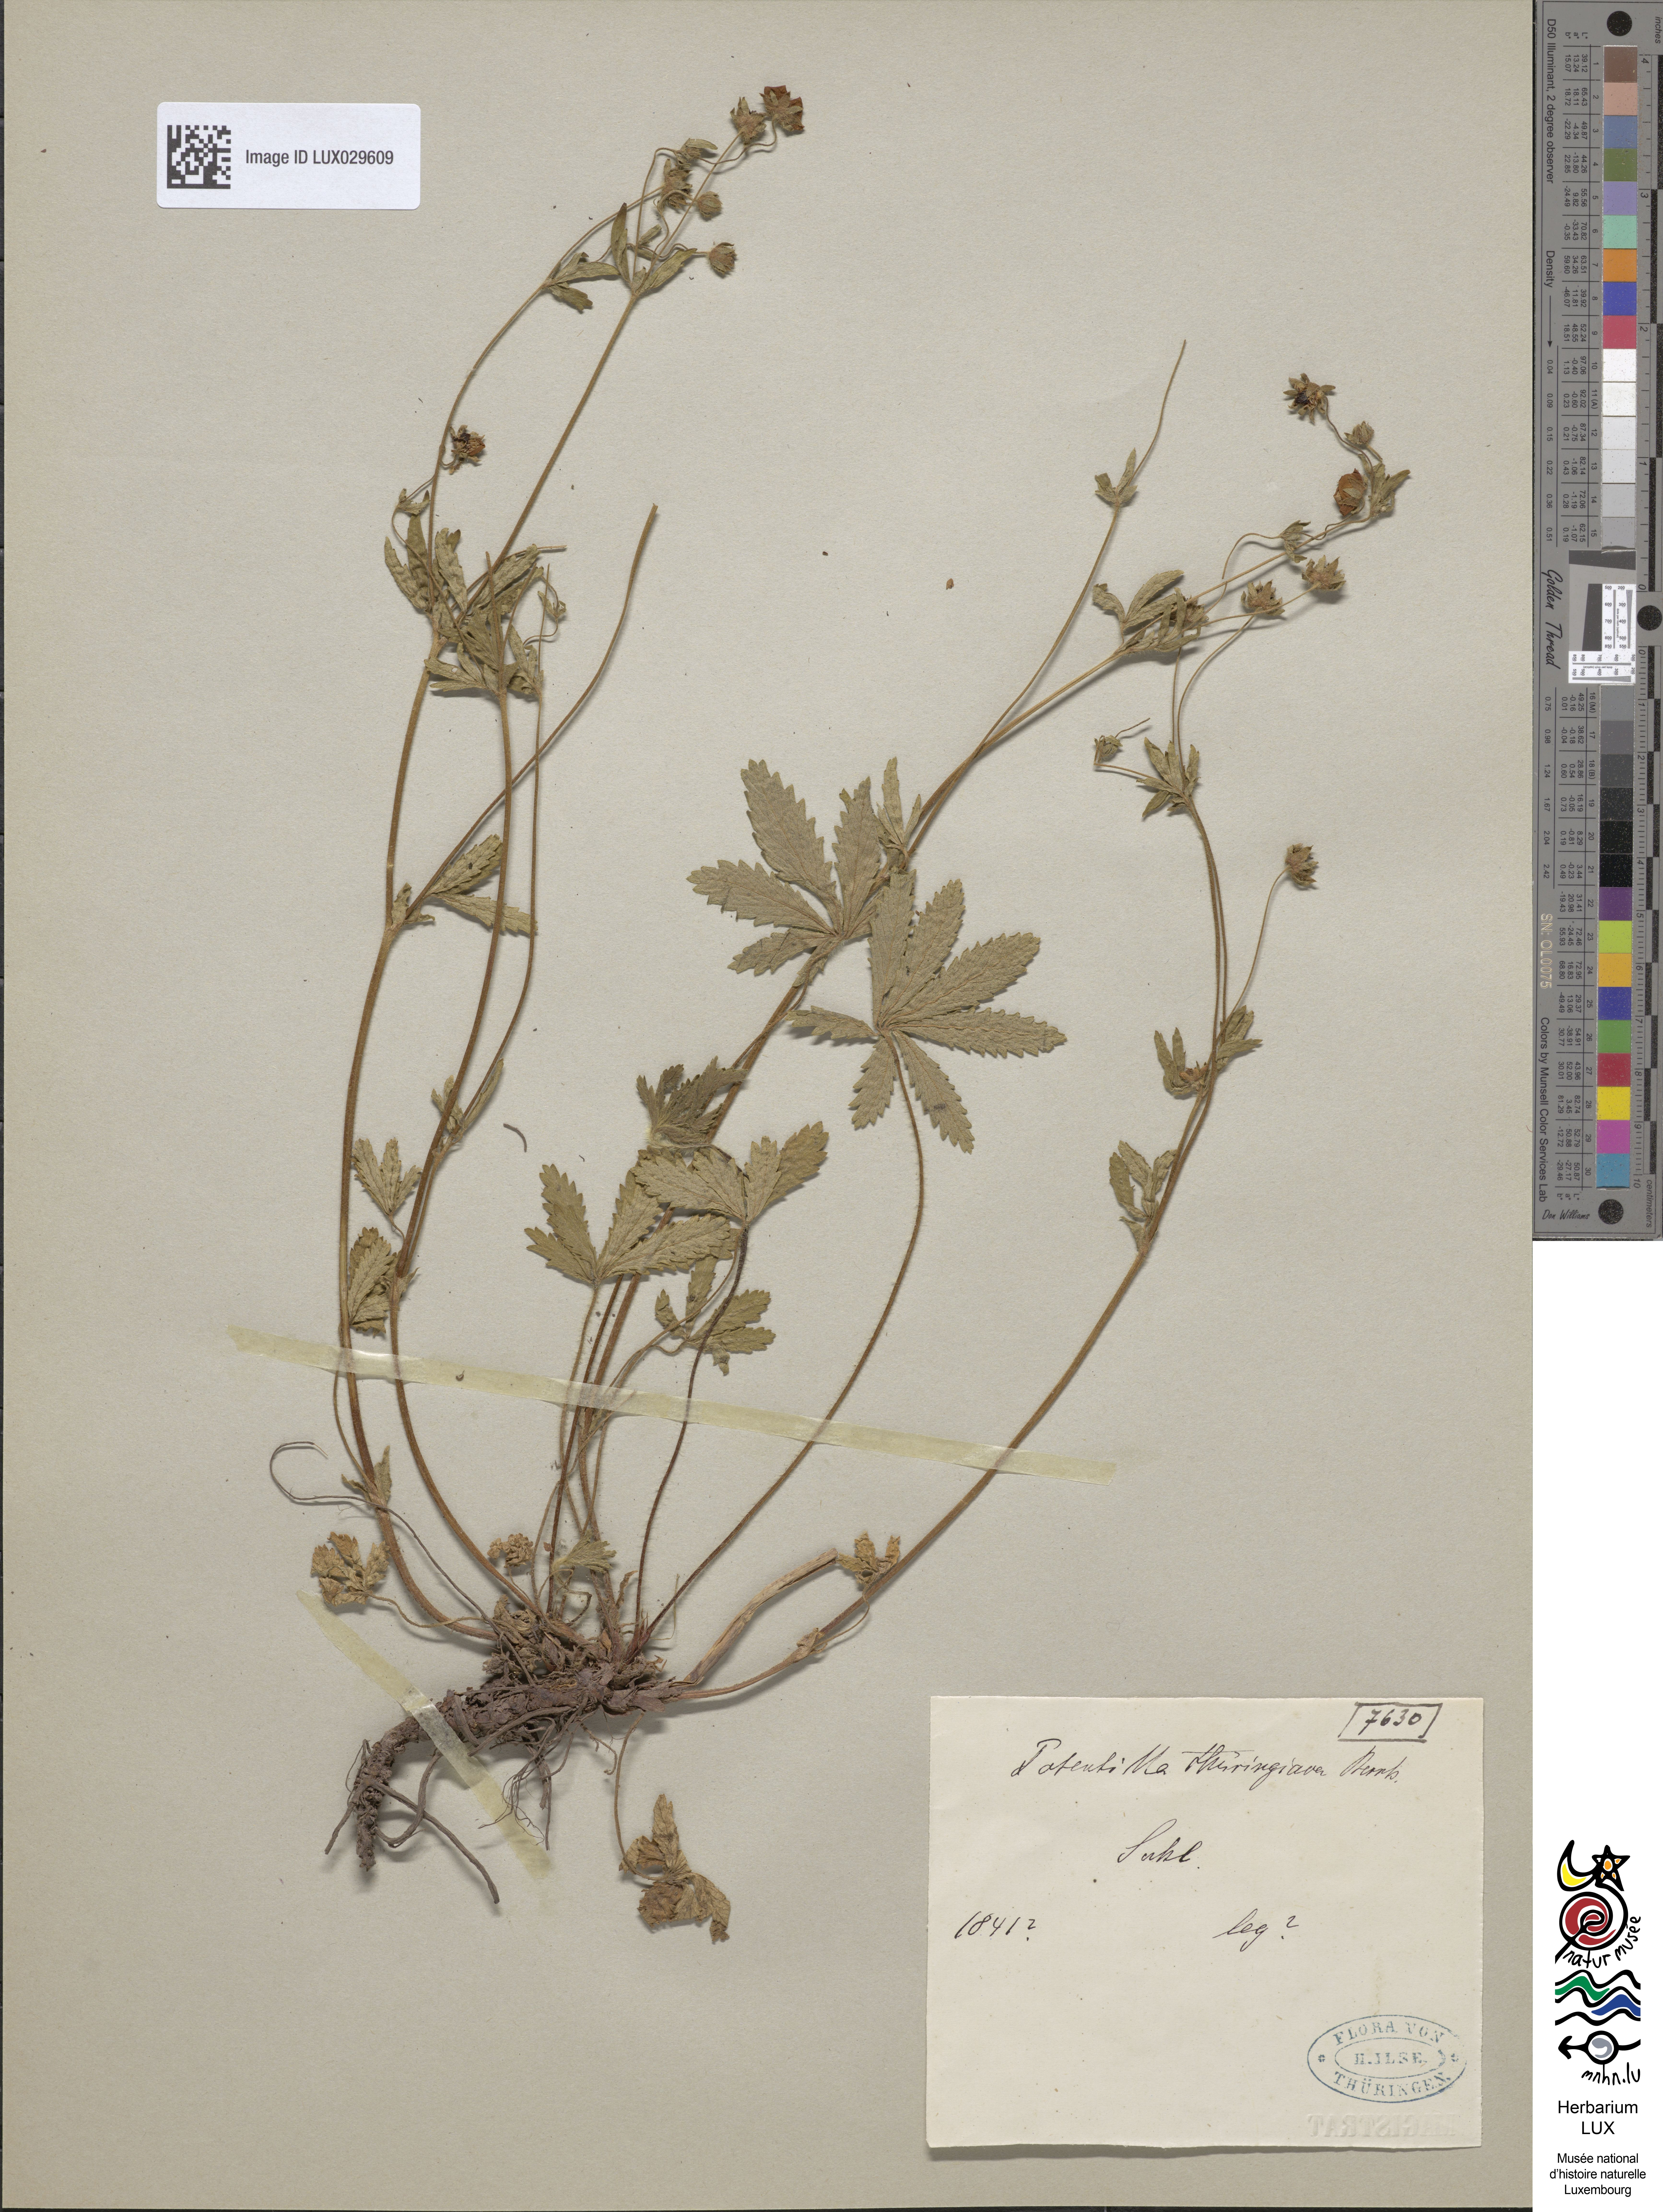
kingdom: Plantae
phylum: Tracheophyta
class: Magnoliopsida
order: Rosales
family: Rosaceae
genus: Potentilla
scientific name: Potentilla thuringiaca
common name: European cinquefoil
